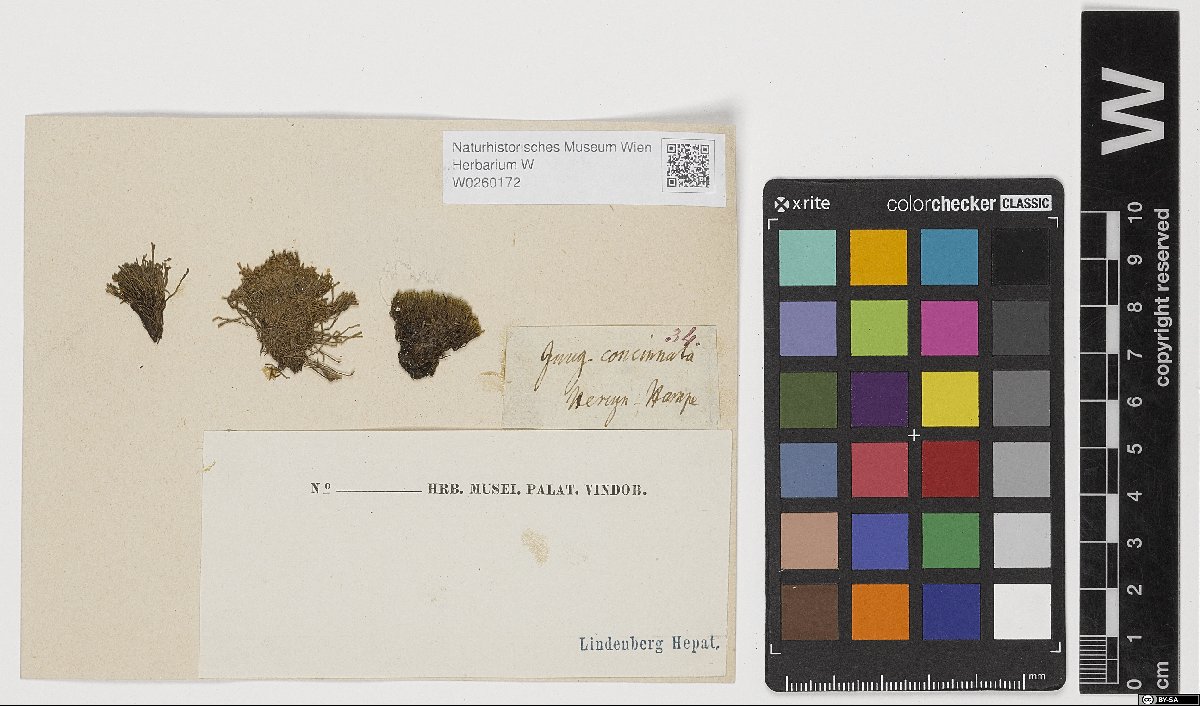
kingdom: Plantae
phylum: Marchantiophyta
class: Jungermanniopsida
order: Jungermanniales
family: Gymnomitriaceae
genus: Gymnomitrion
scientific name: Gymnomitrion concinnatum
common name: Braided frostwort
